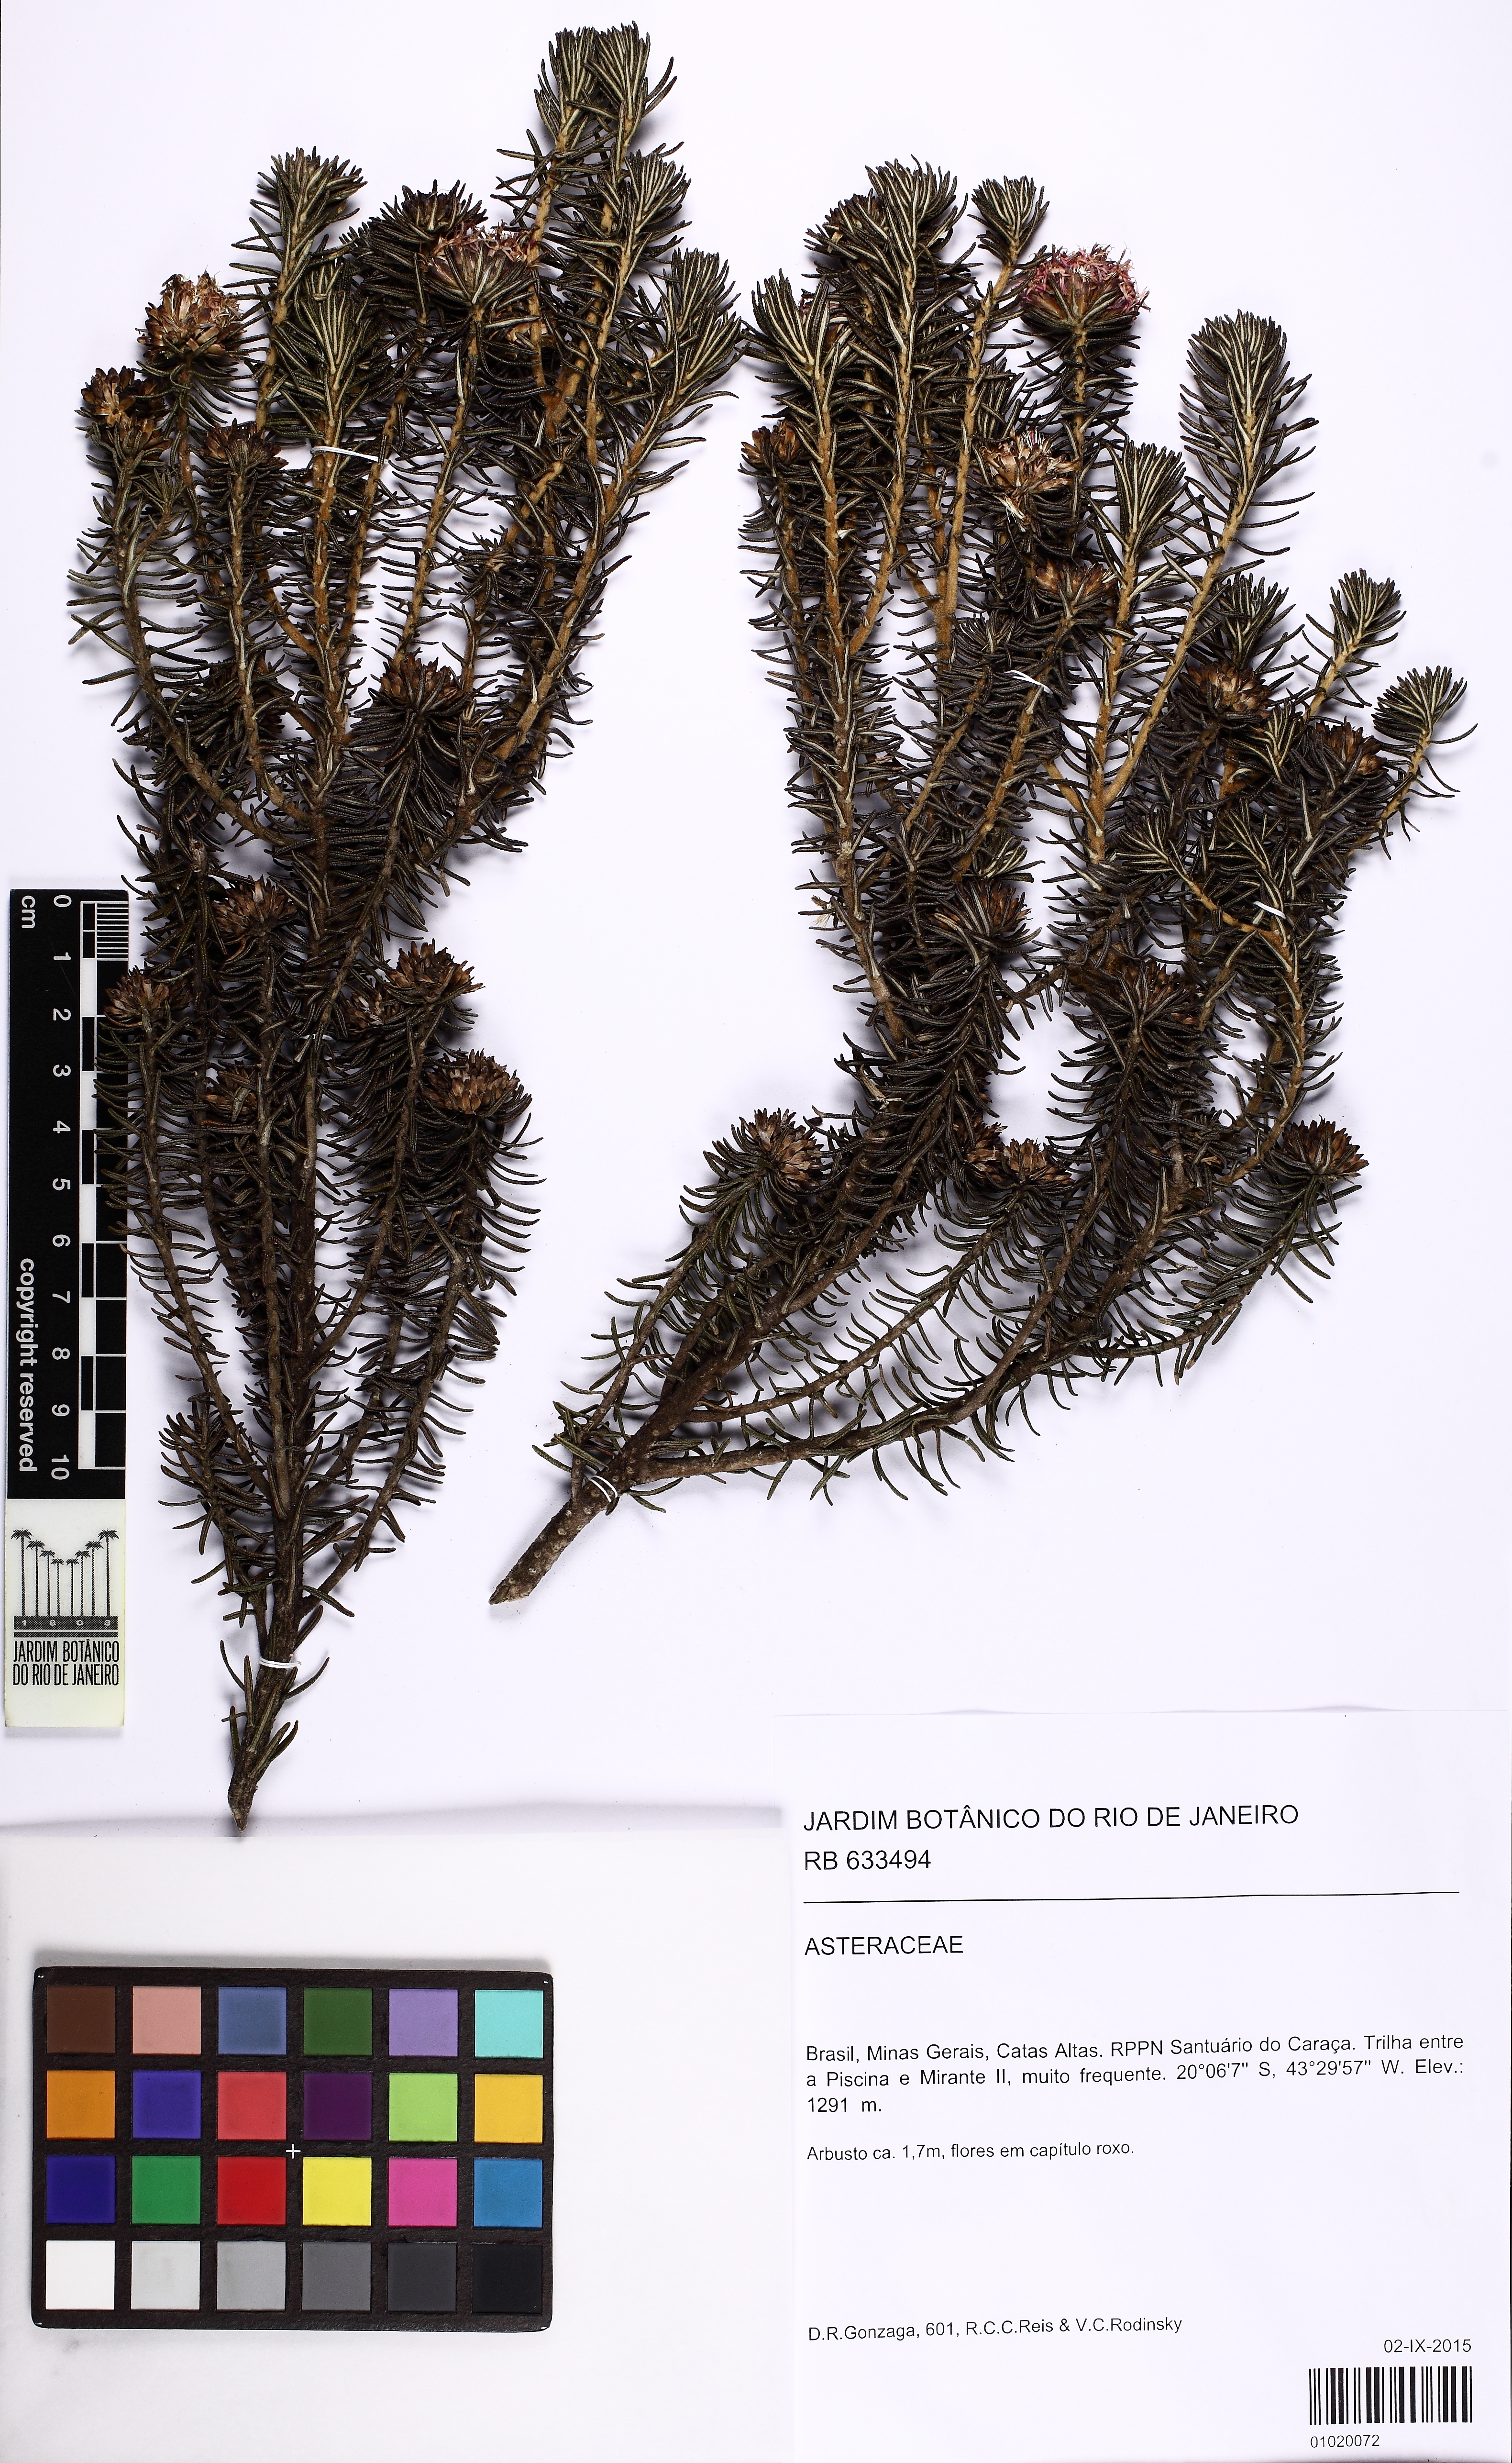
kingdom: Plantae
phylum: Tracheophyta
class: Magnoliopsida
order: Asterales
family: Asteraceae
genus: Lychnophora
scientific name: Lychnophora
